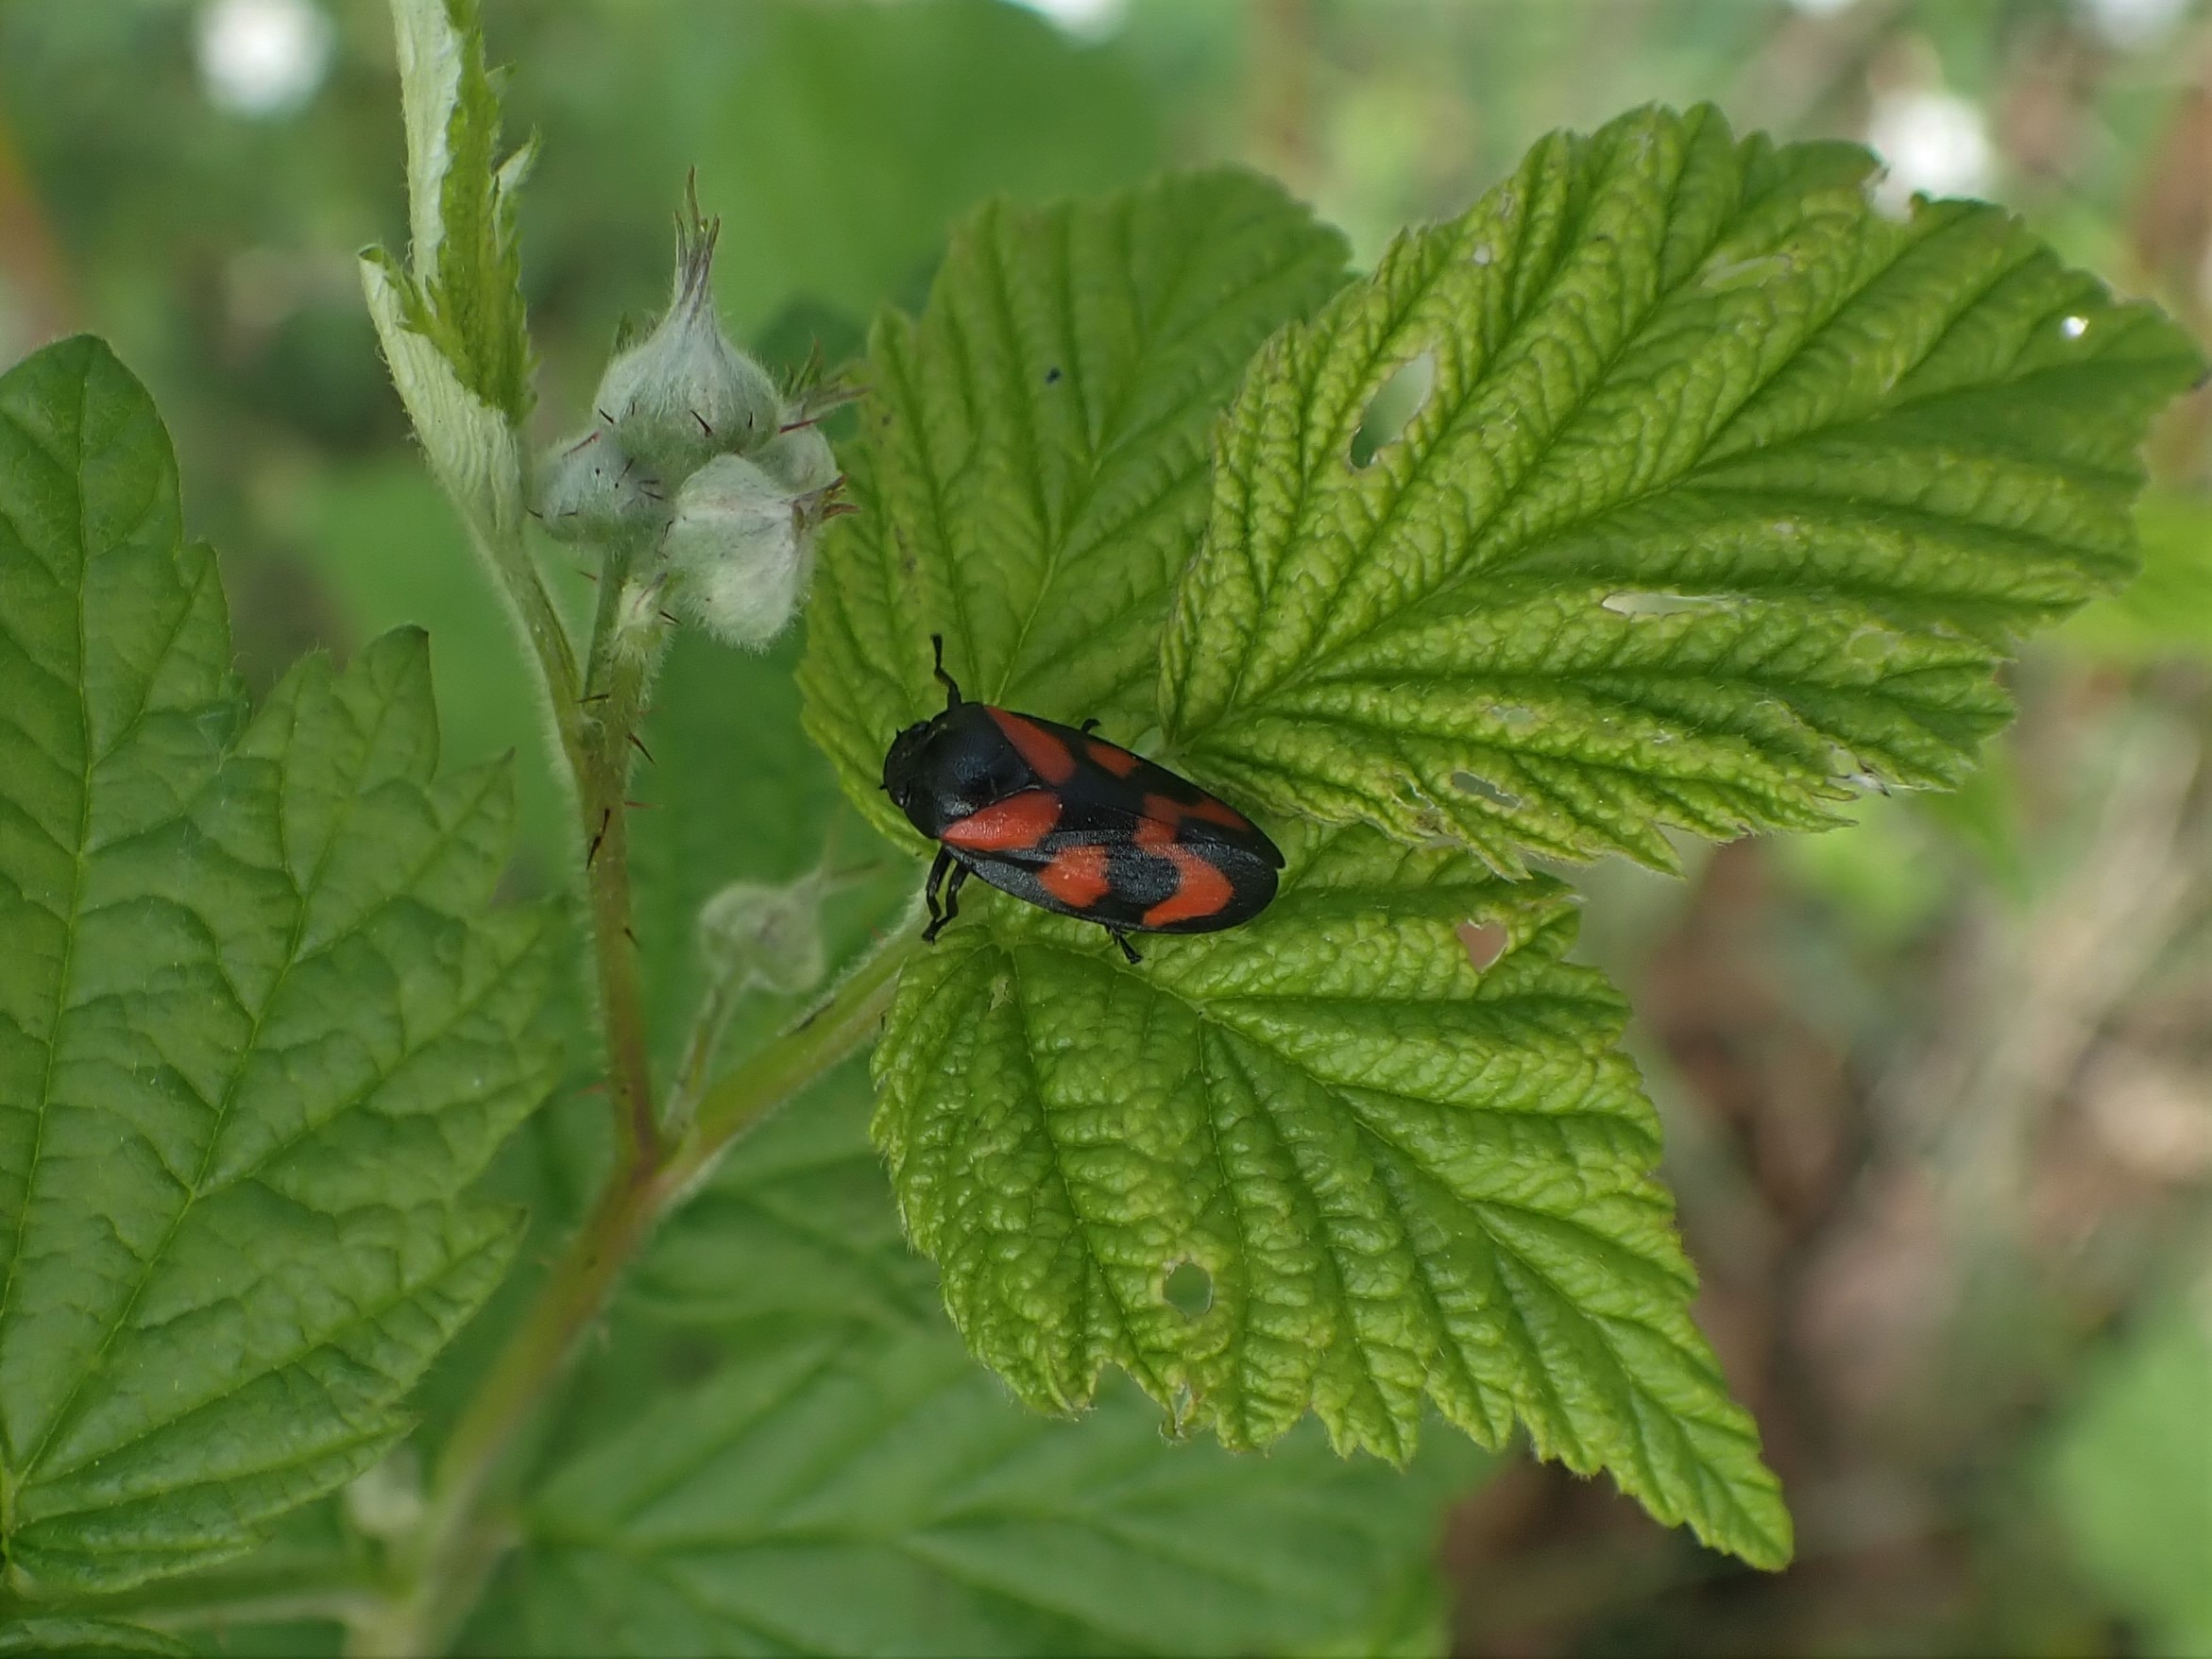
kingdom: Animalia
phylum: Arthropoda
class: Insecta
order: Hemiptera
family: Cercopidae
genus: Cercopis
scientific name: Cercopis vulnerata
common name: Blodcikade
